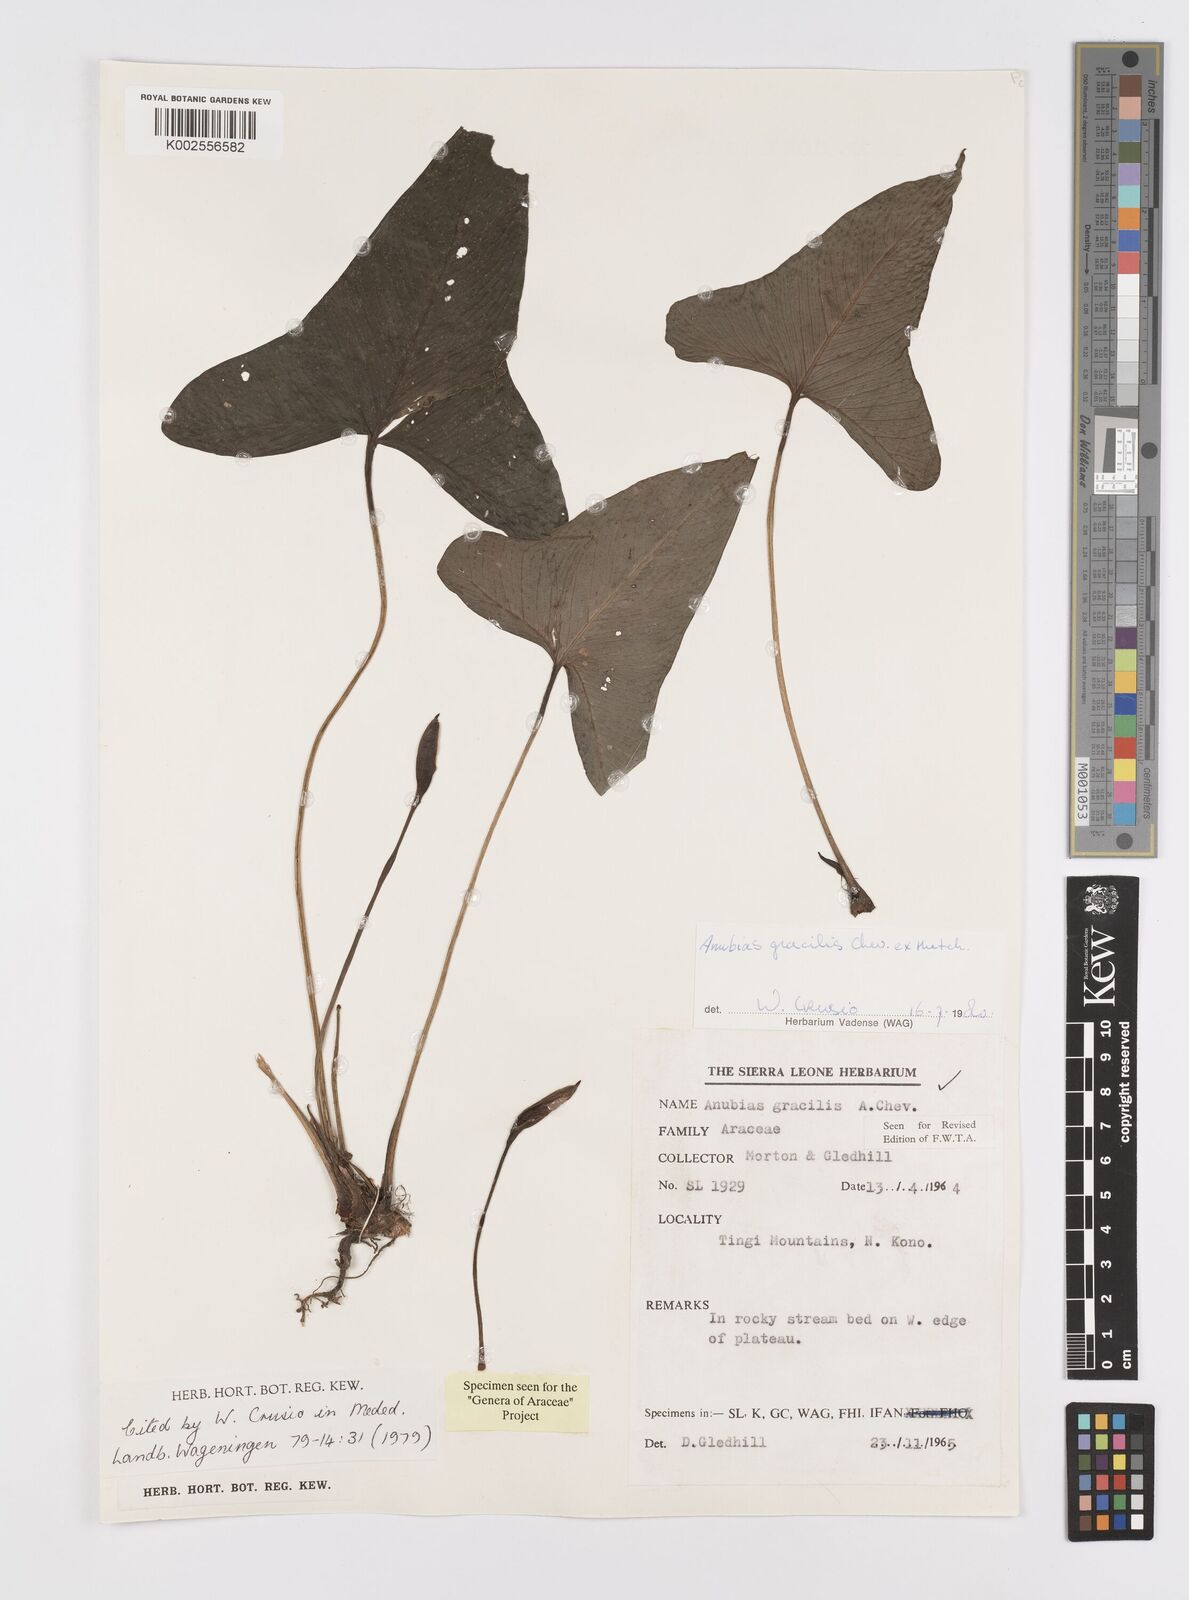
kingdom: Plantae
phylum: Tracheophyta
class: Liliopsida
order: Alismatales
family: Araceae
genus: Anubias
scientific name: Anubias gracilis
